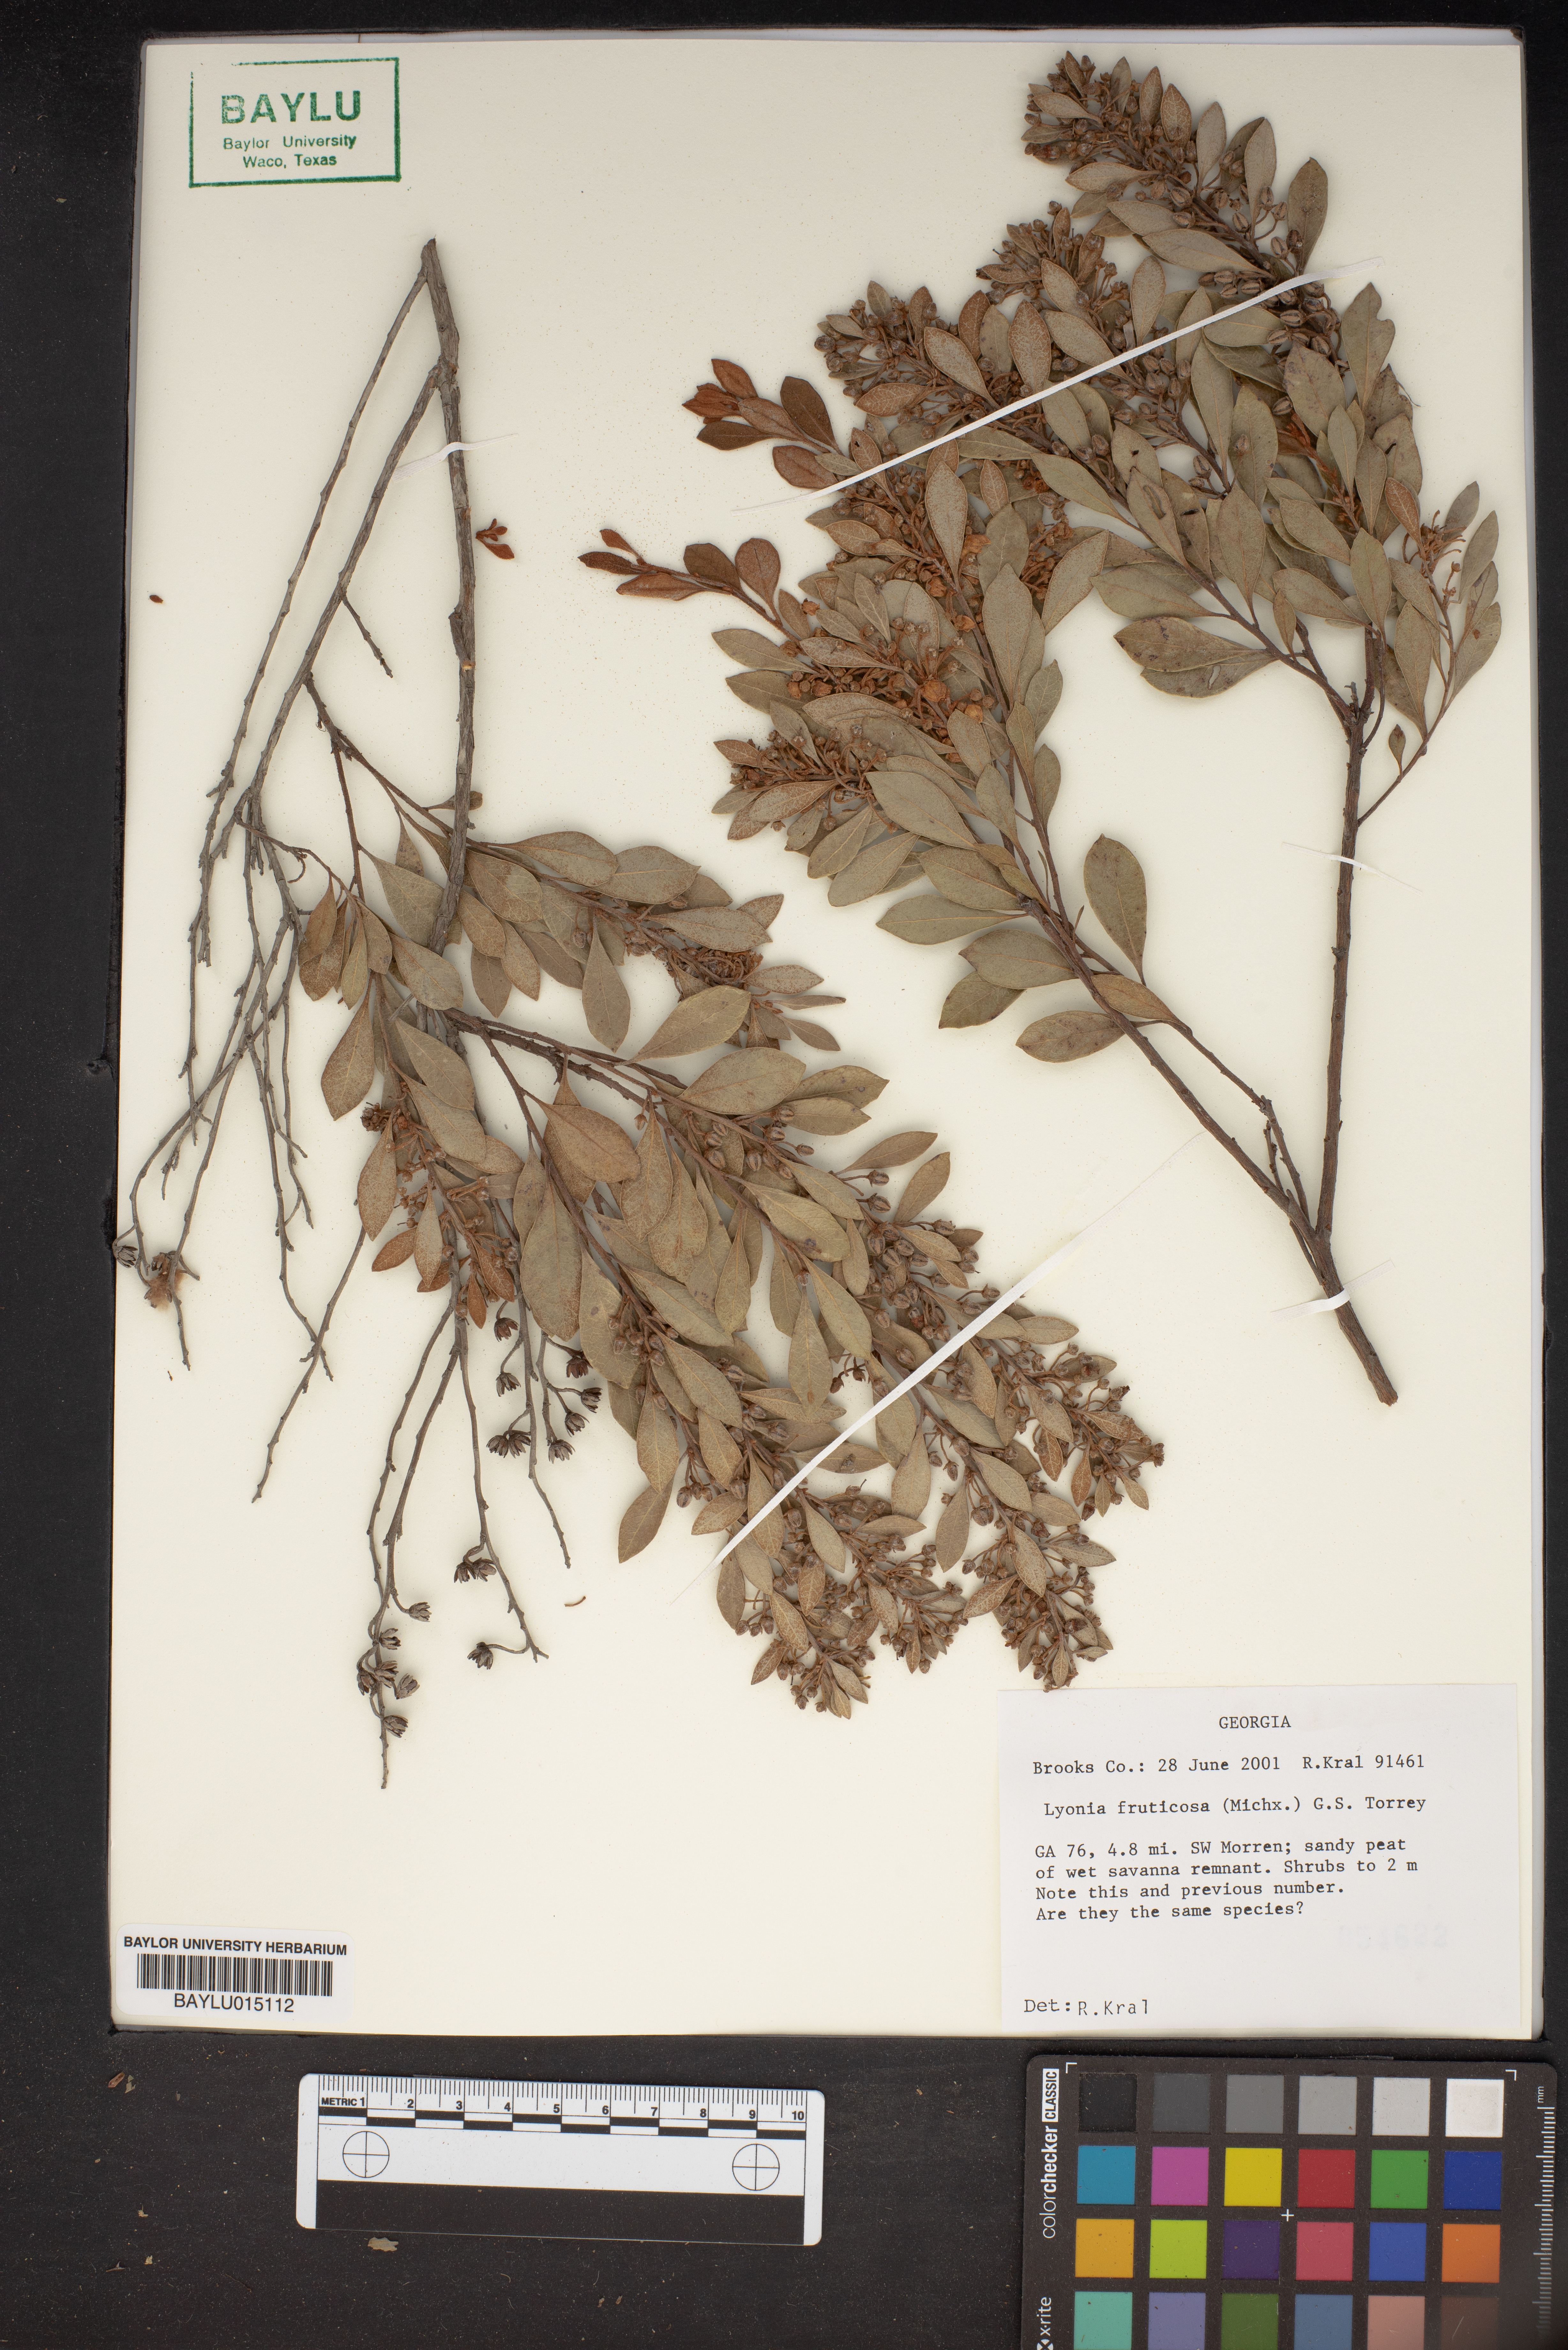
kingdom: Plantae
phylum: Tracheophyta
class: Magnoliopsida
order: Ericales
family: Ericaceae
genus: Lyonia
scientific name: Lyonia fruticosa
